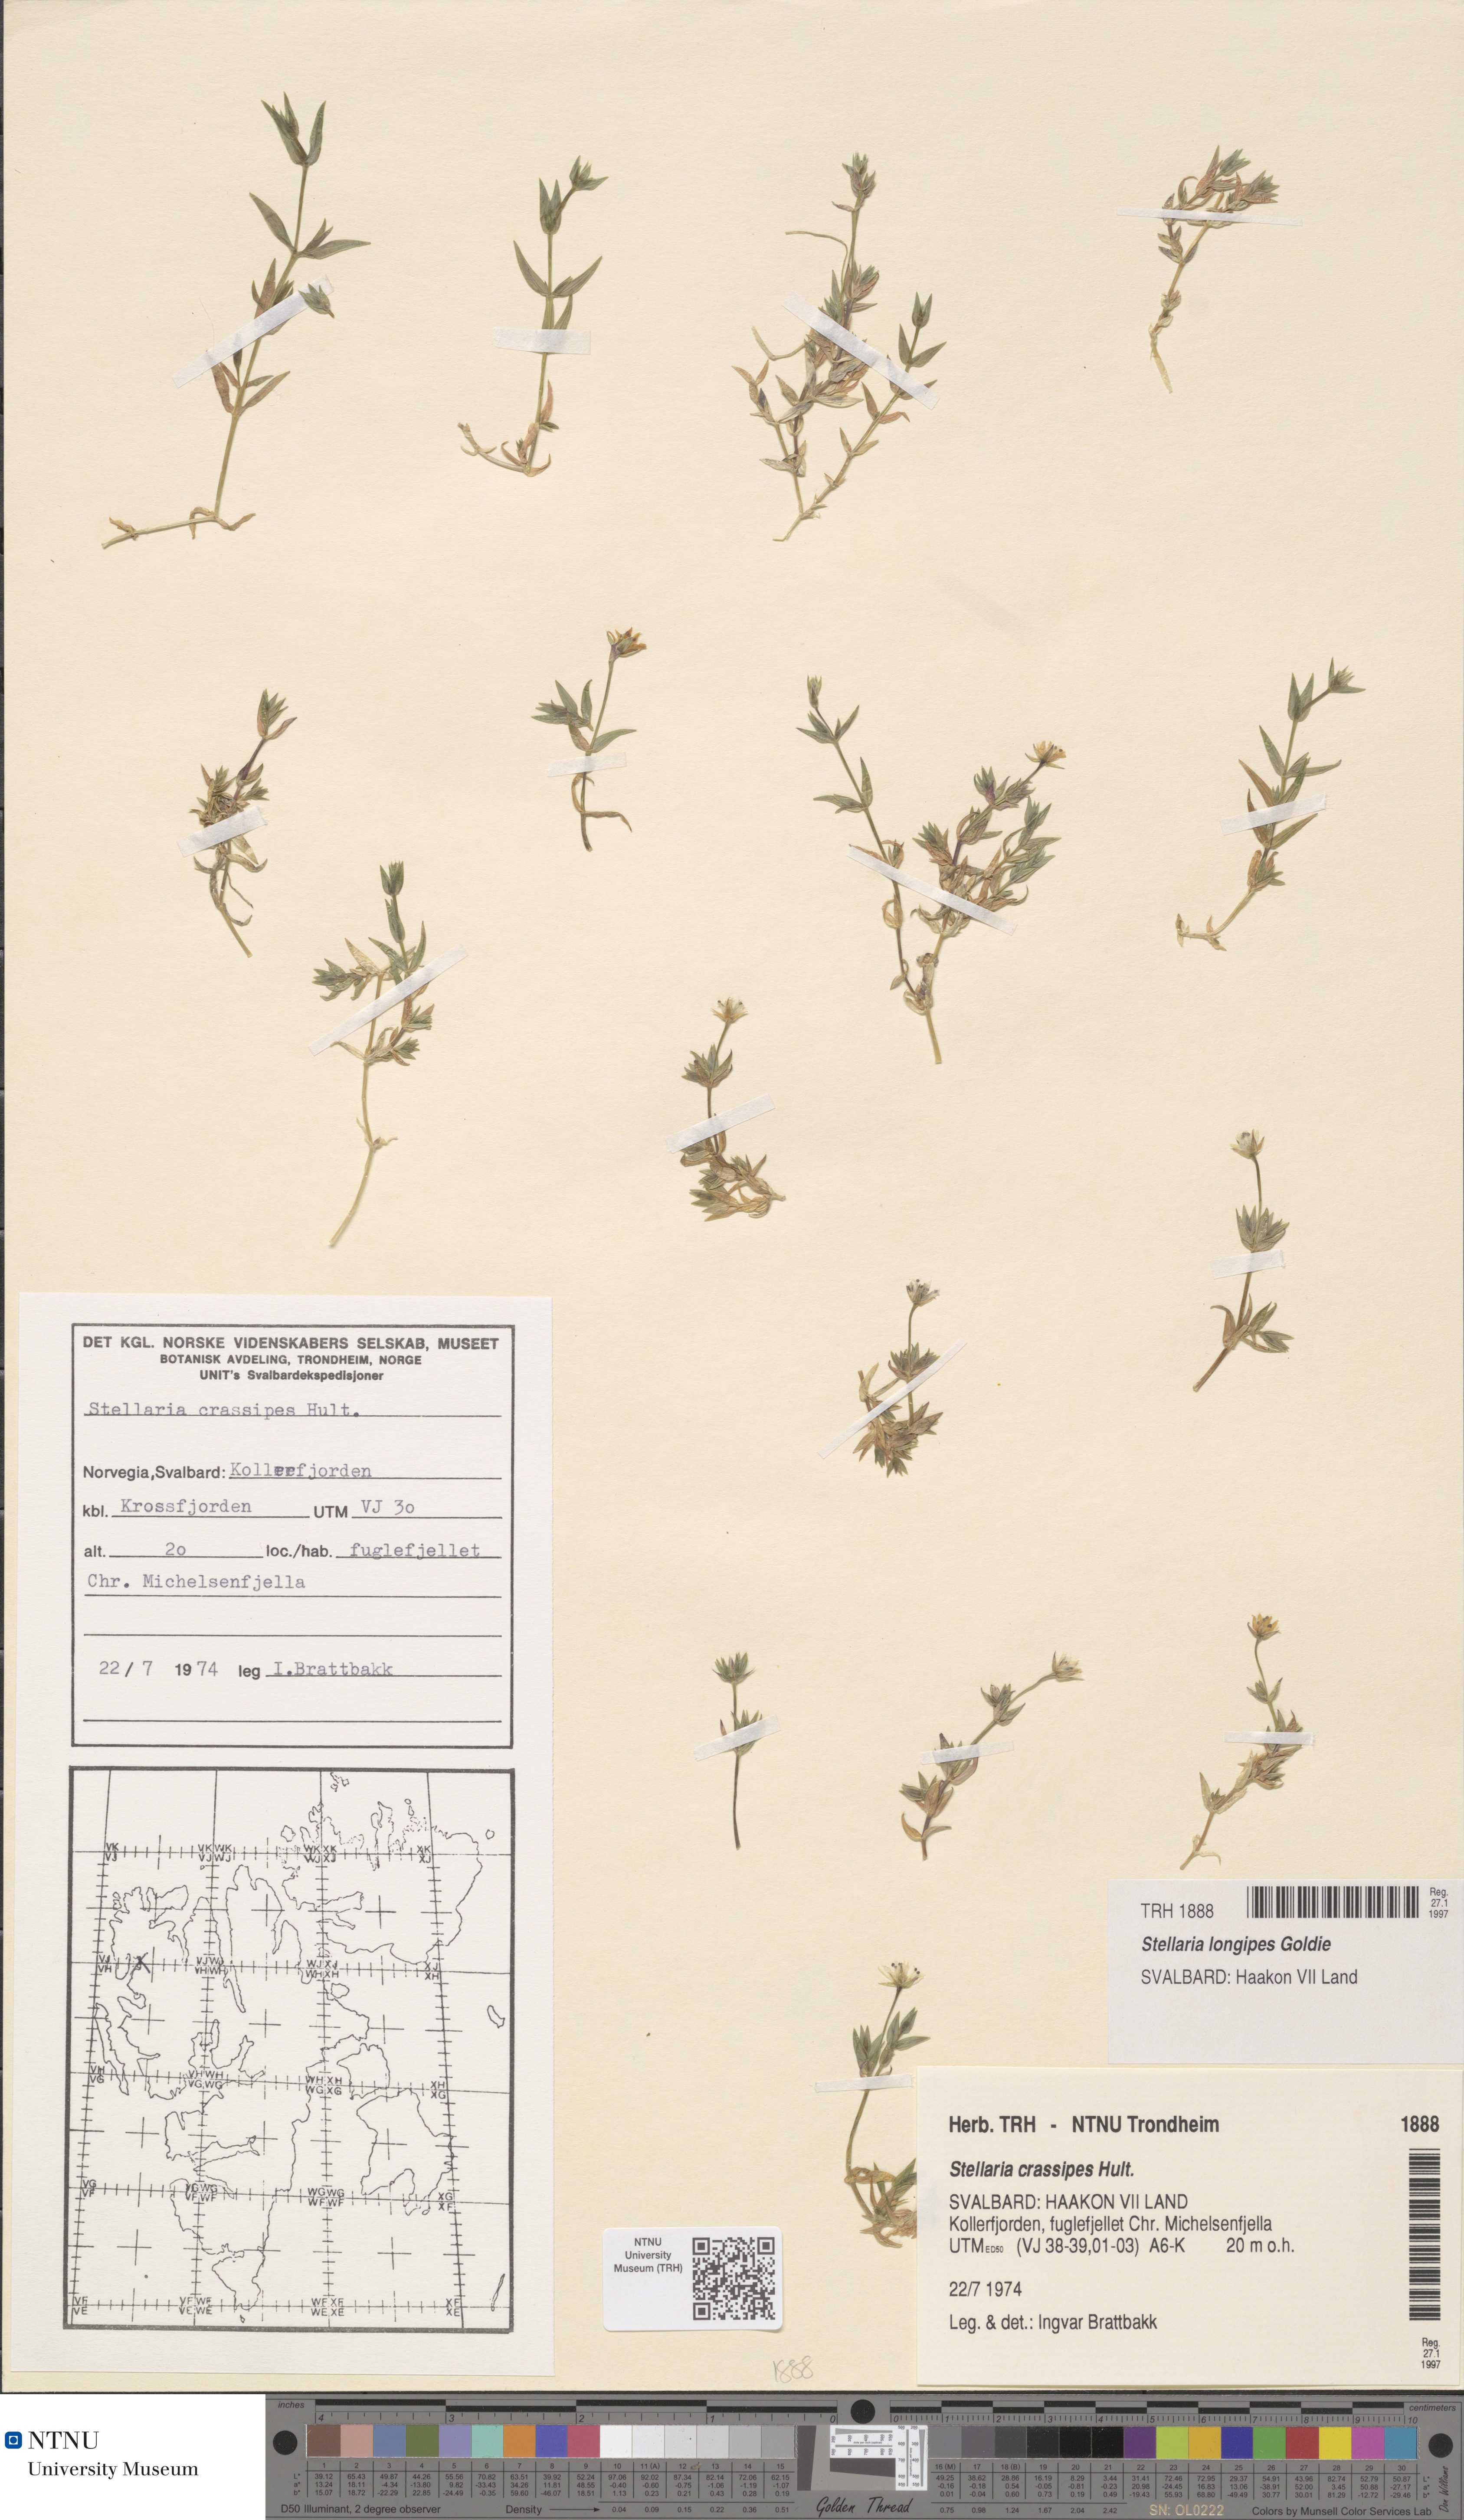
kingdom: Plantae
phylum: Tracheophyta
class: Magnoliopsida
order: Caryophyllales
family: Caryophyllaceae
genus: Stellaria
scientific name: Stellaria longipes
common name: Goldie's starwort
